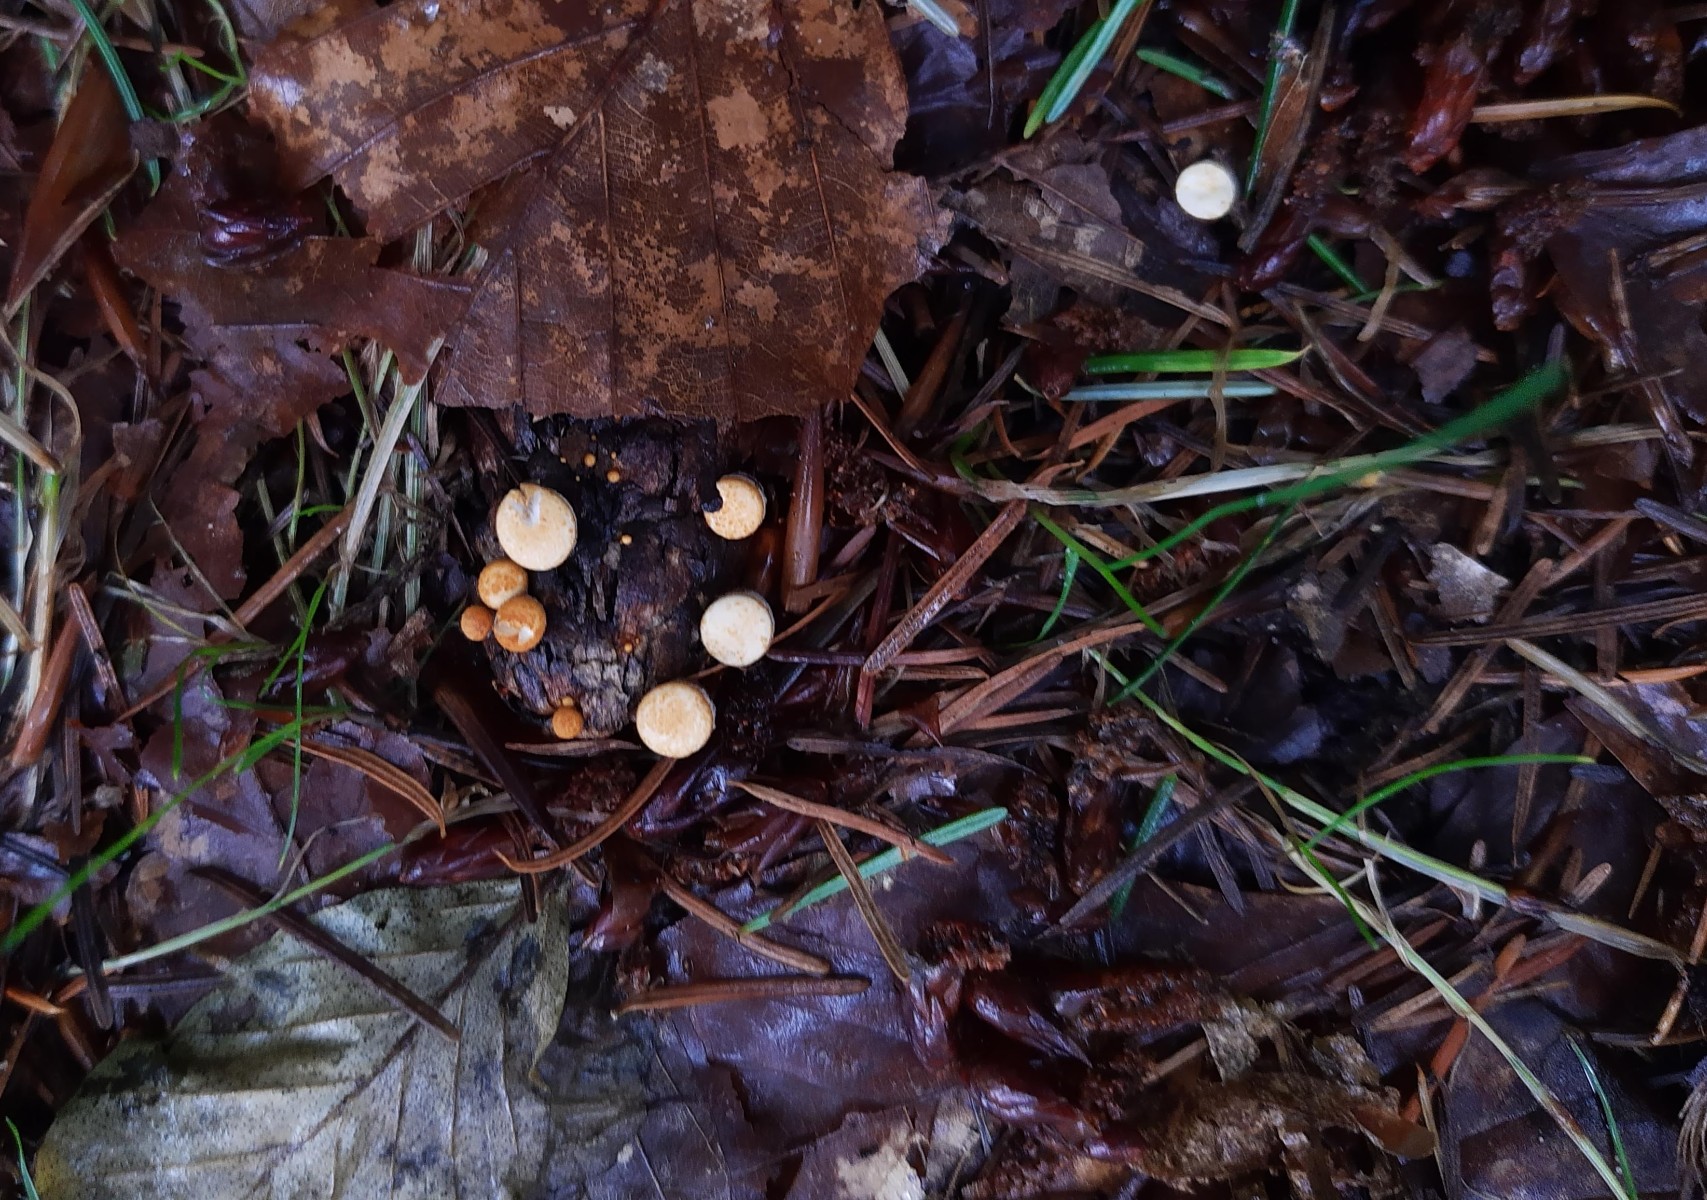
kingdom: Fungi
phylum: Basidiomycota
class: Agaricomycetes
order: Agaricales
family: Nidulariaceae
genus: Crucibulum
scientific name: Crucibulum crucibuliforme
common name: krukkesvamp
